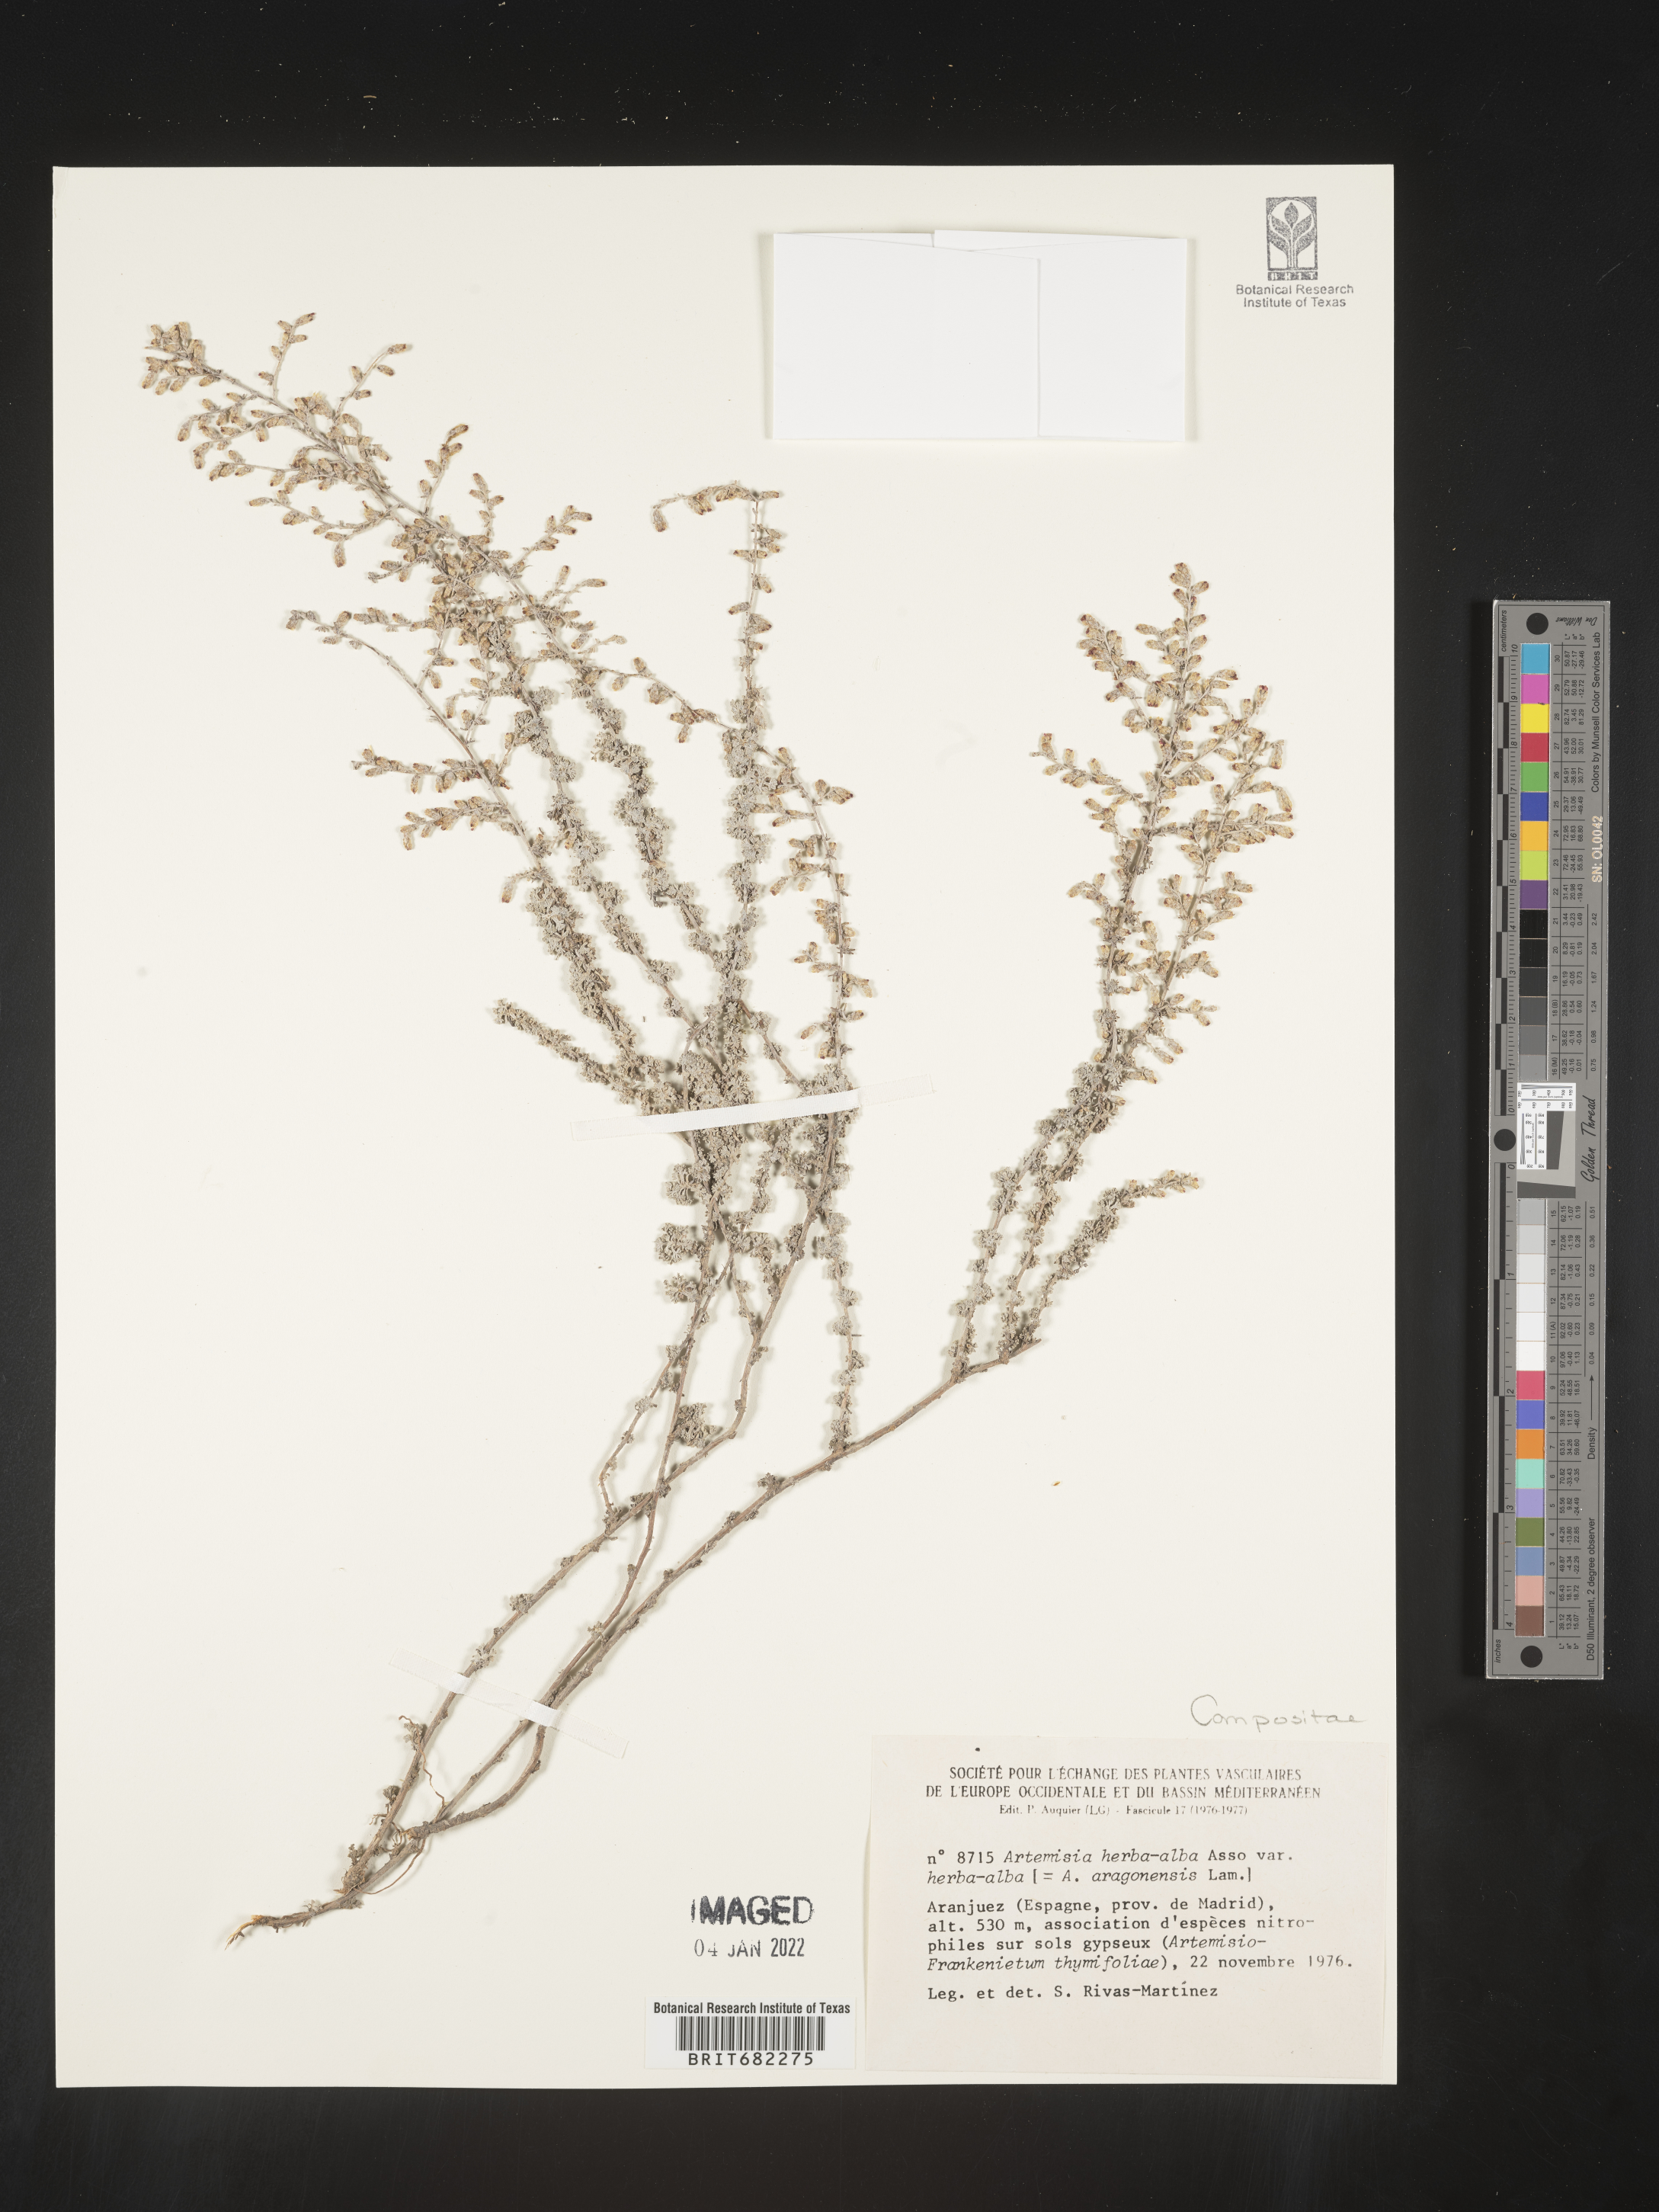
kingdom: Plantae
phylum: Tracheophyta
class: Magnoliopsida
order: Asterales
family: Asteraceae
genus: Artemisia
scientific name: Artemisia
